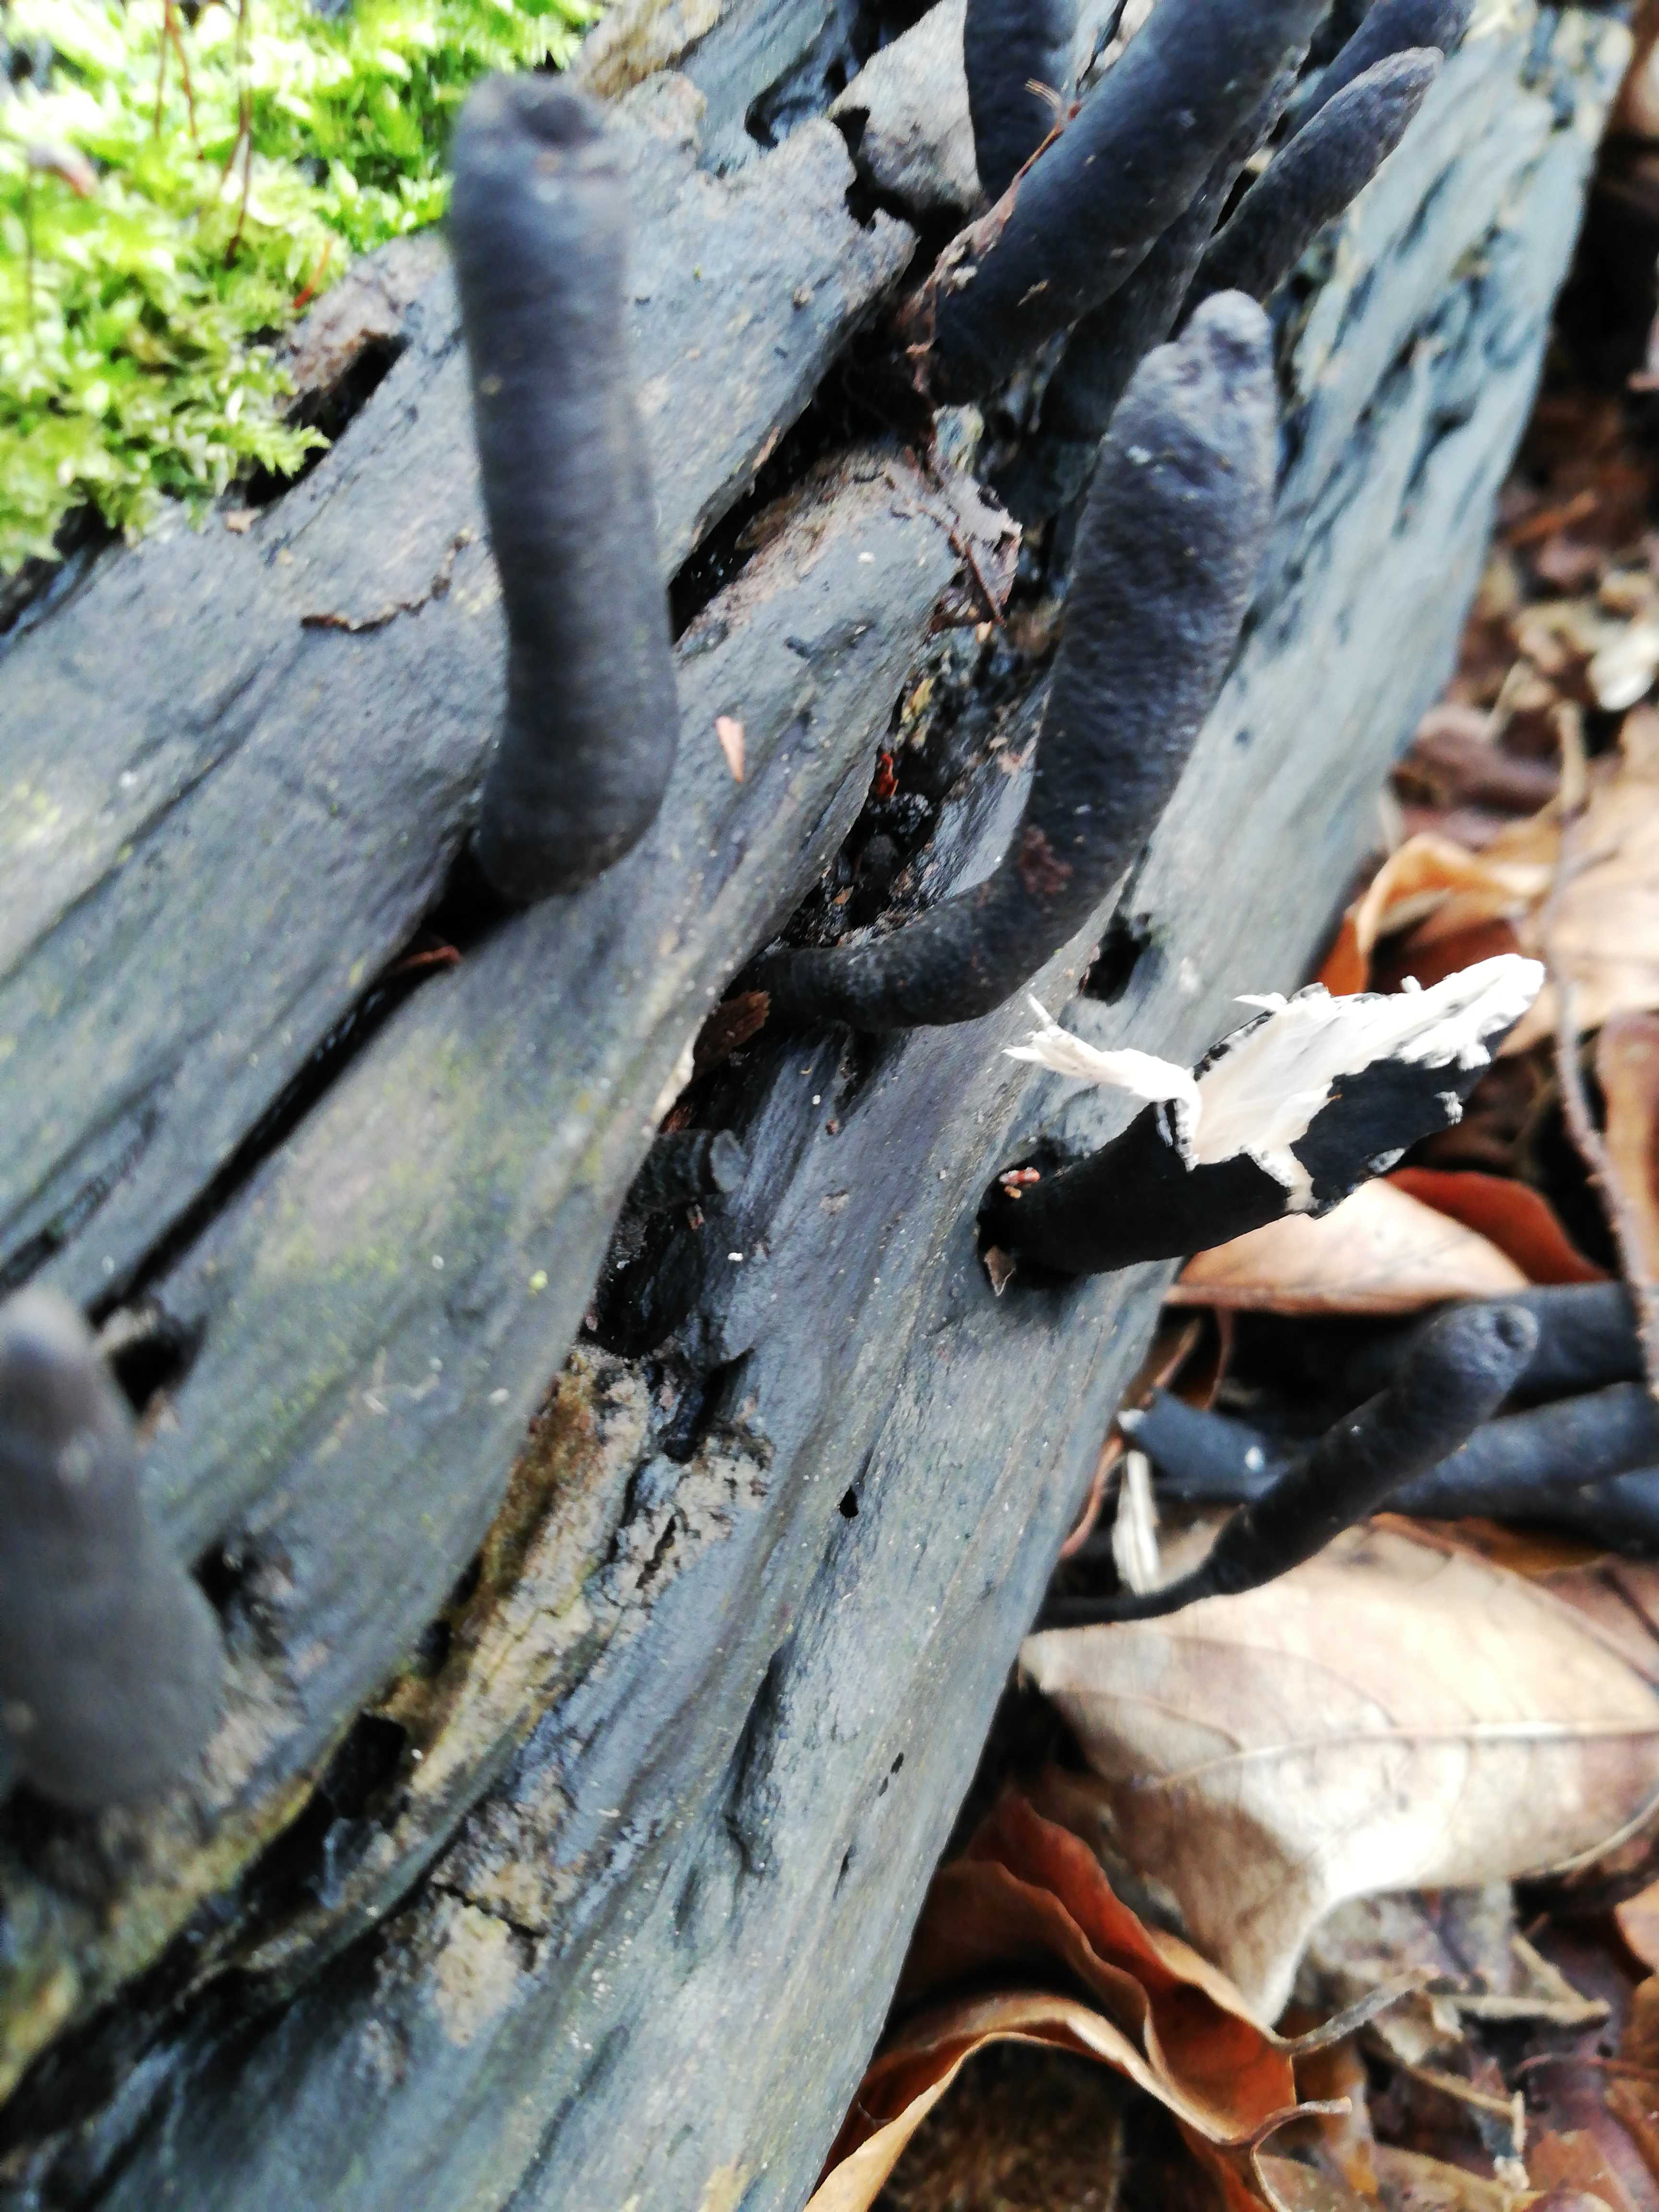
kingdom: Fungi
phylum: Ascomycota
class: Sordariomycetes
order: Xylariales
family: Xylariaceae
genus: Xylaria
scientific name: Xylaria longipes
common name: slank stødsvamp
